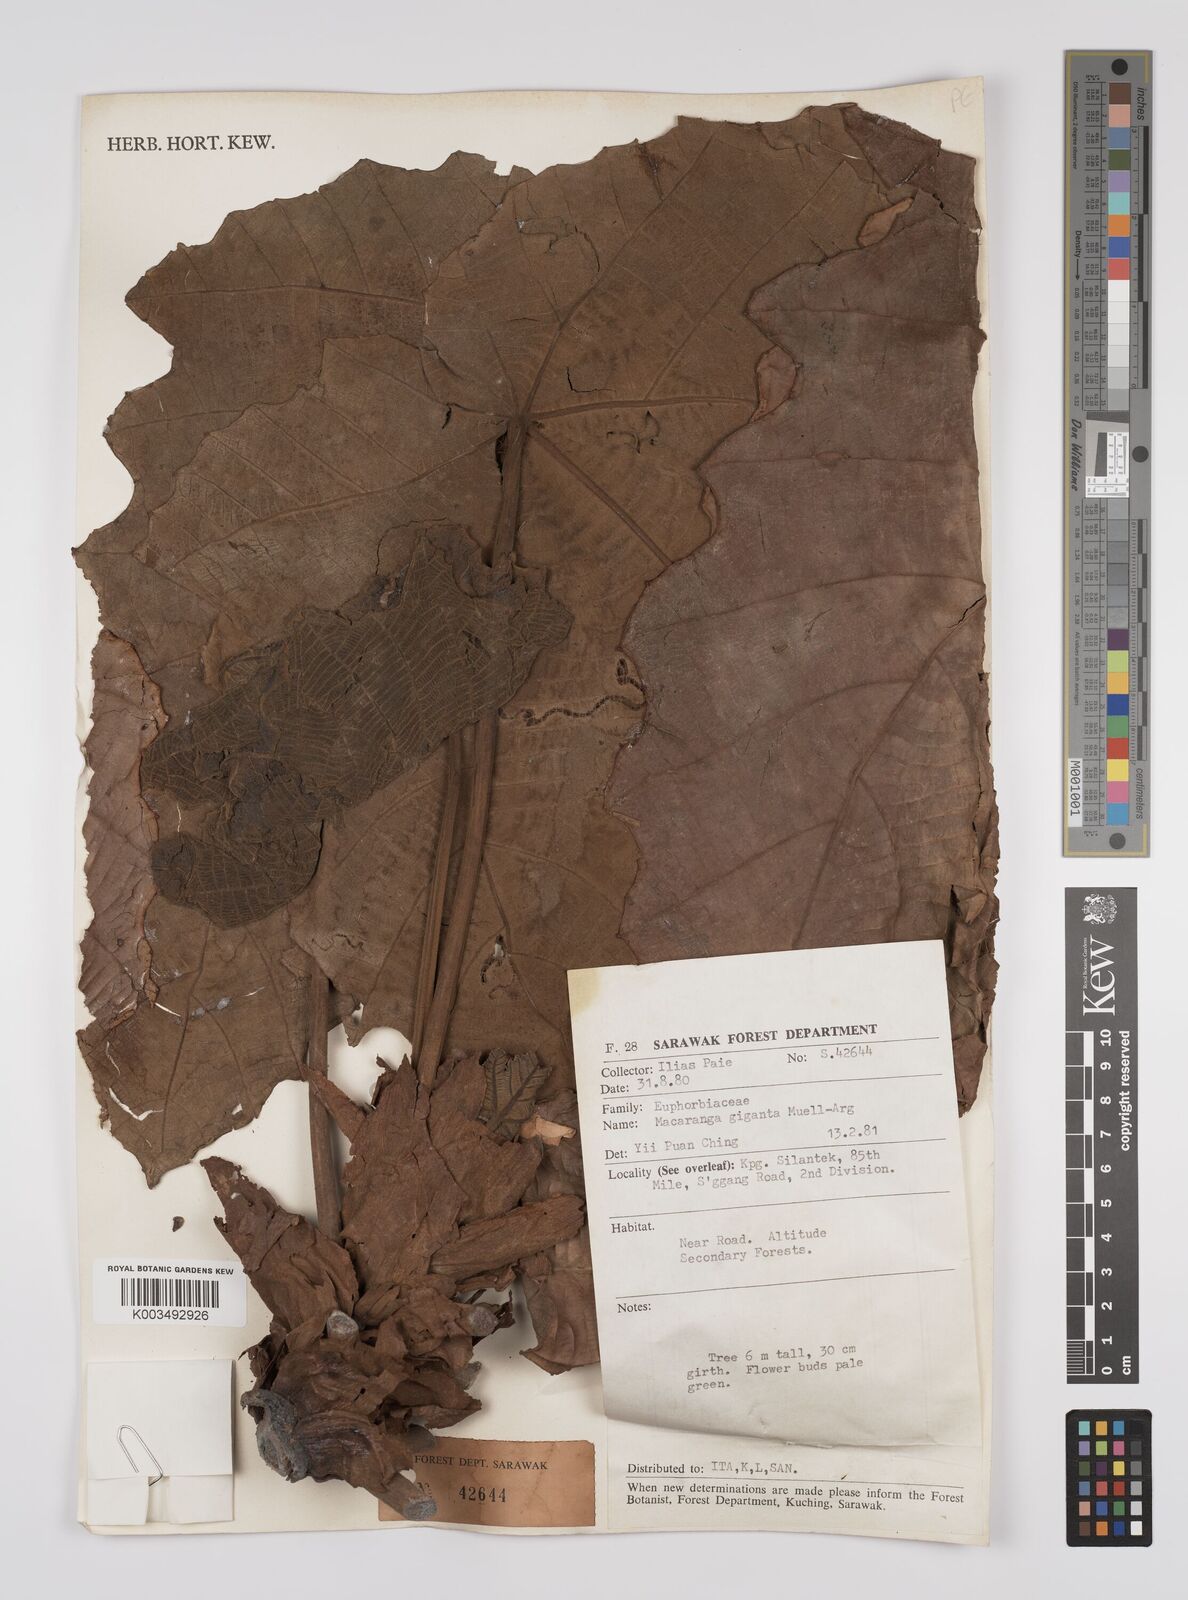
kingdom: Plantae
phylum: Tracheophyta
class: Magnoliopsida
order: Malpighiales
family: Euphorbiaceae
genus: Macaranga
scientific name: Macaranga gigantea
